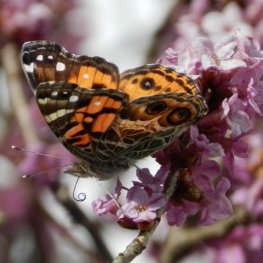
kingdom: Animalia
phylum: Arthropoda
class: Insecta
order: Lepidoptera
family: Nymphalidae
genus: Vanessa
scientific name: Vanessa virginiensis
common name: American Lady
